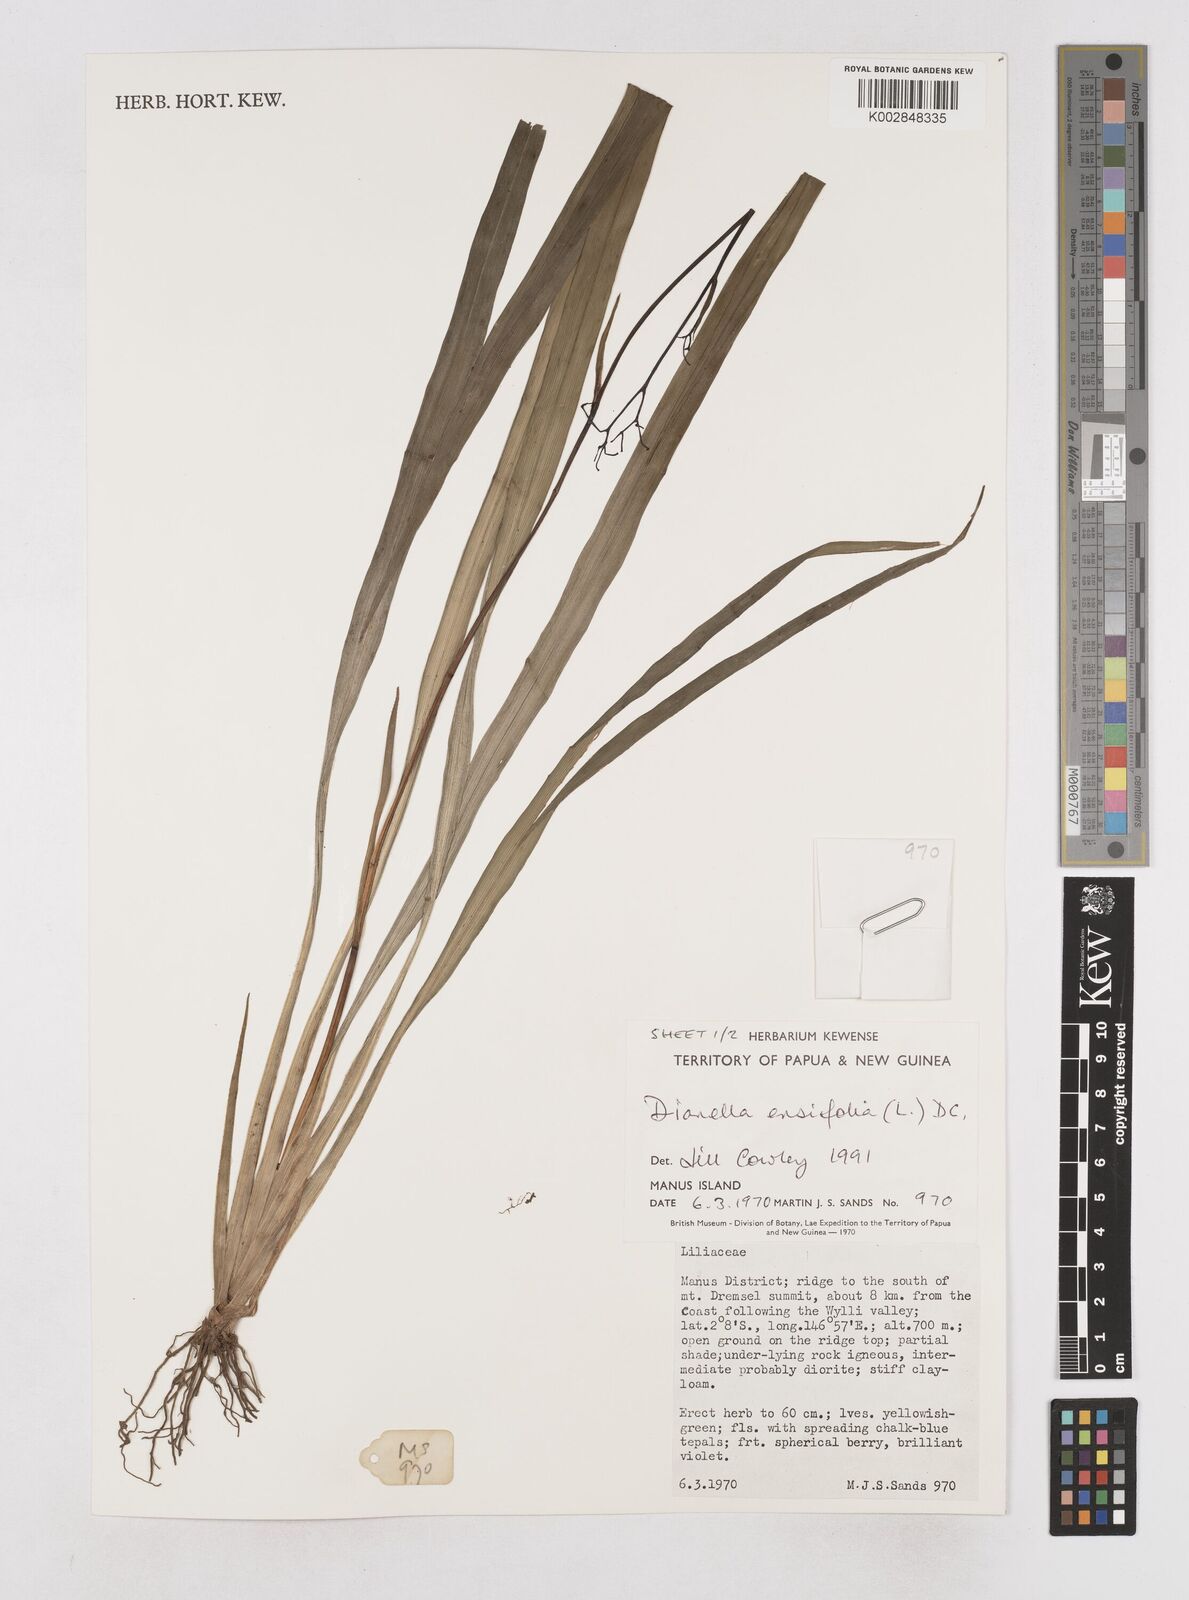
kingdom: Plantae
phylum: Tracheophyta
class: Liliopsida
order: Asparagales
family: Asphodelaceae
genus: Dianella
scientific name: Dianella ensifolia
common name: New zealand lilyplant
